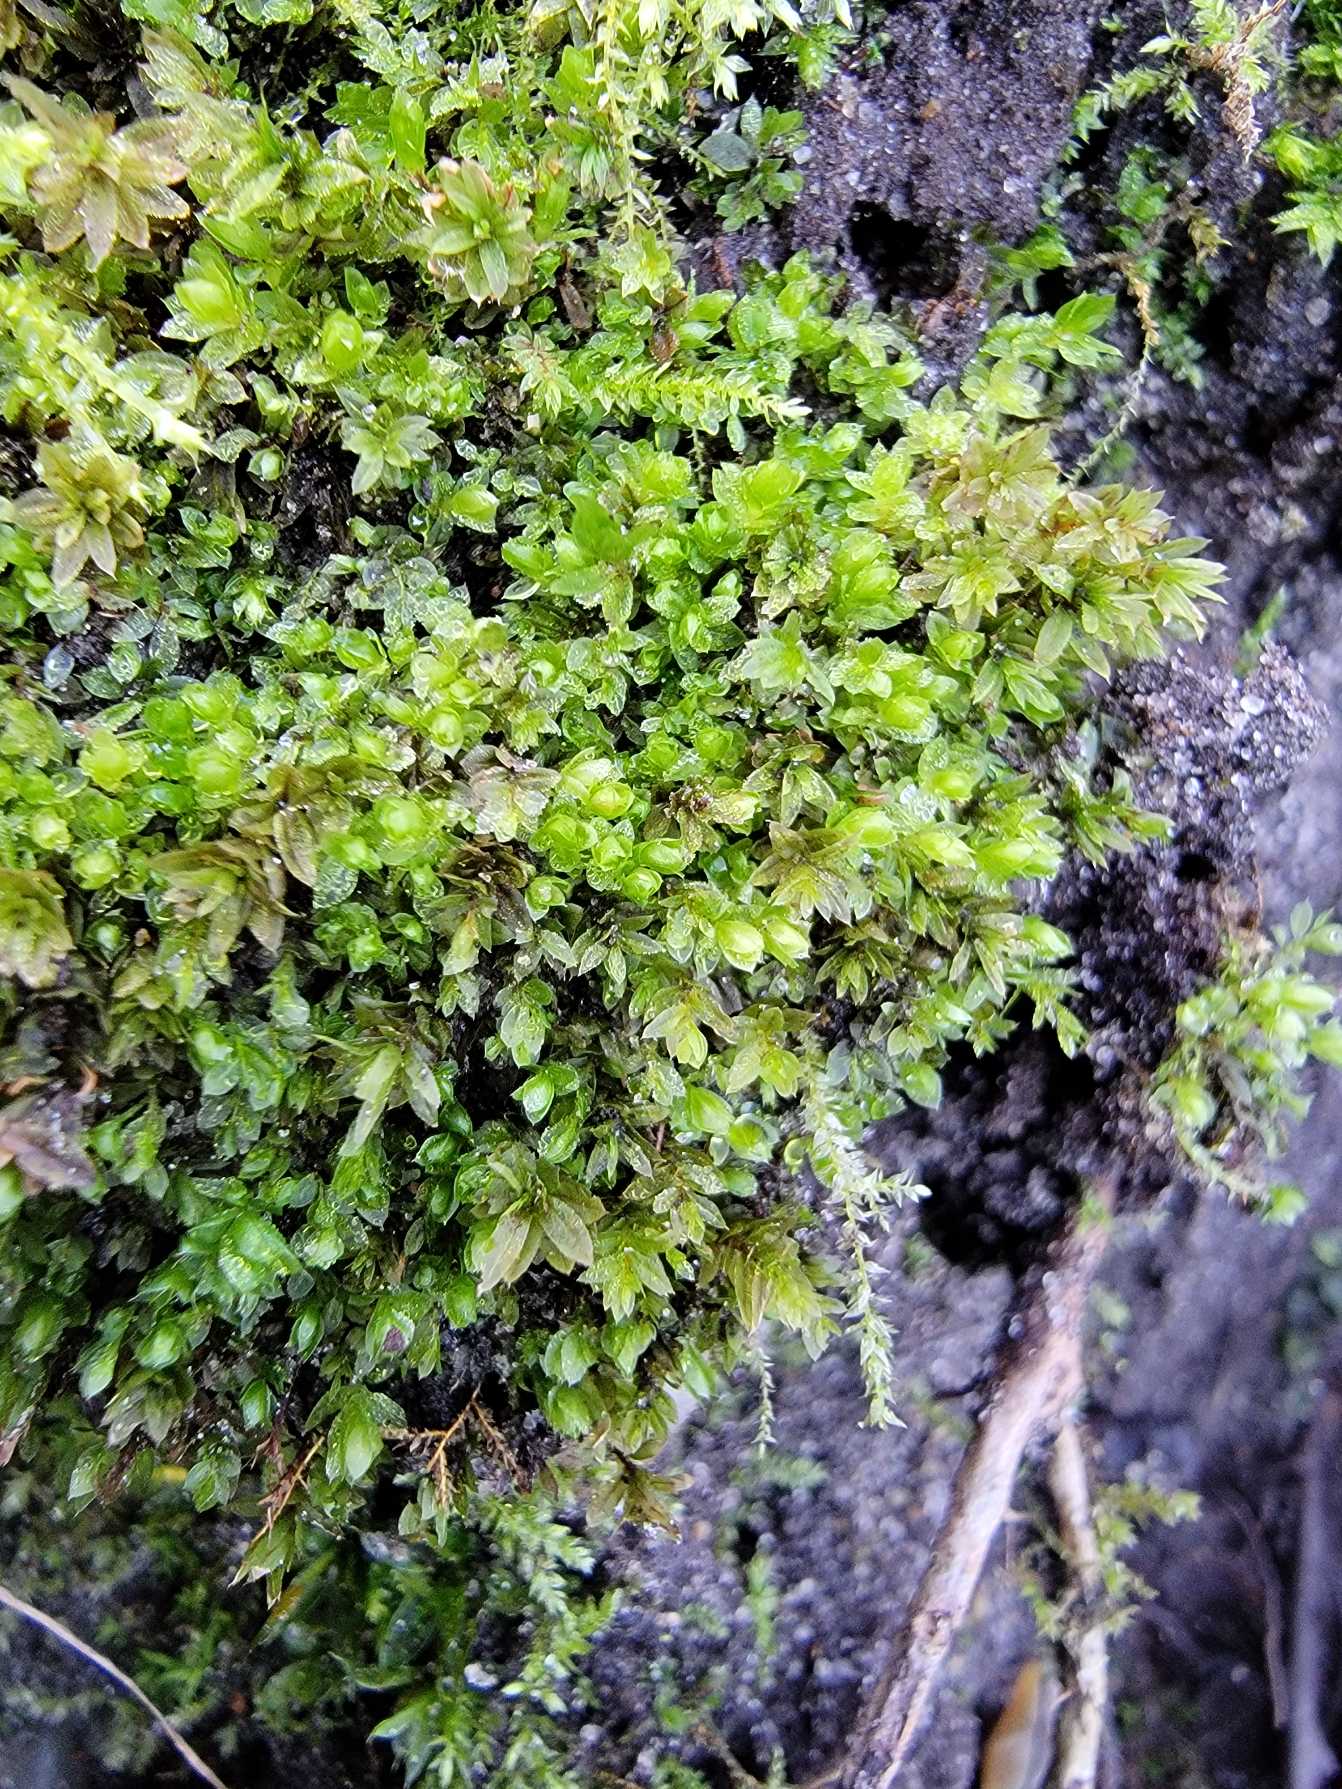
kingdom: Plantae
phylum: Bryophyta
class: Bryopsida
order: Bryales
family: Mniaceae
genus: Mnium
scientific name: Mnium stellare
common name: Indigo stjernemos
